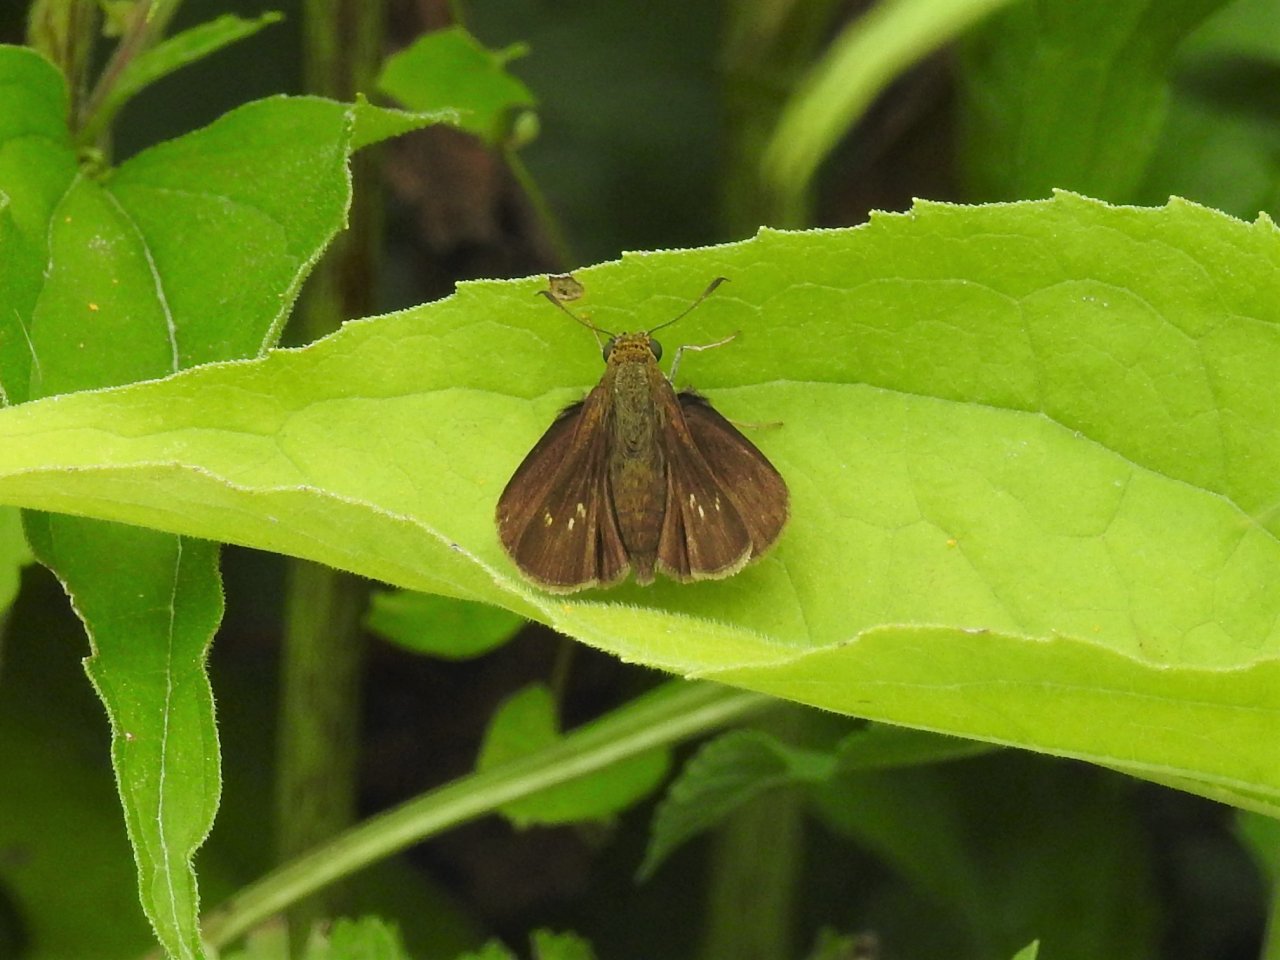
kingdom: Animalia
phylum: Arthropoda
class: Insecta
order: Lepidoptera
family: Hesperiidae
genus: Euphyes
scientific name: Euphyes vestris
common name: Dun Skipper
